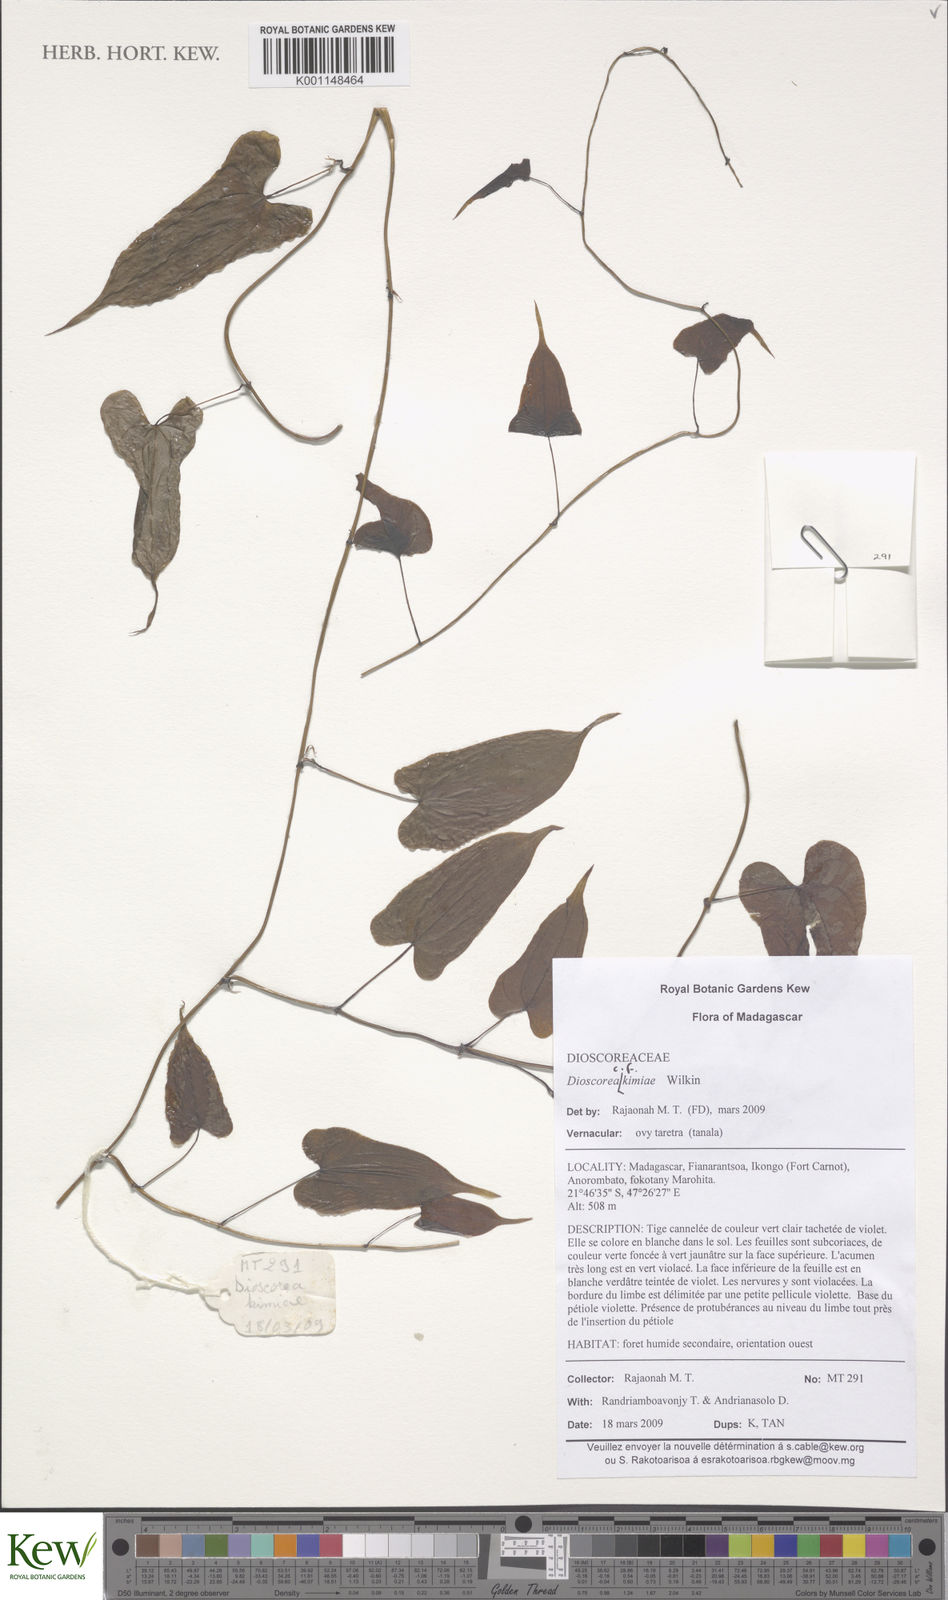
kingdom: Plantae
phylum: Tracheophyta
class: Liliopsida
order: Dioscoreales
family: Dioscoreaceae
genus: Dioscorea
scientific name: Dioscorea kimiae
